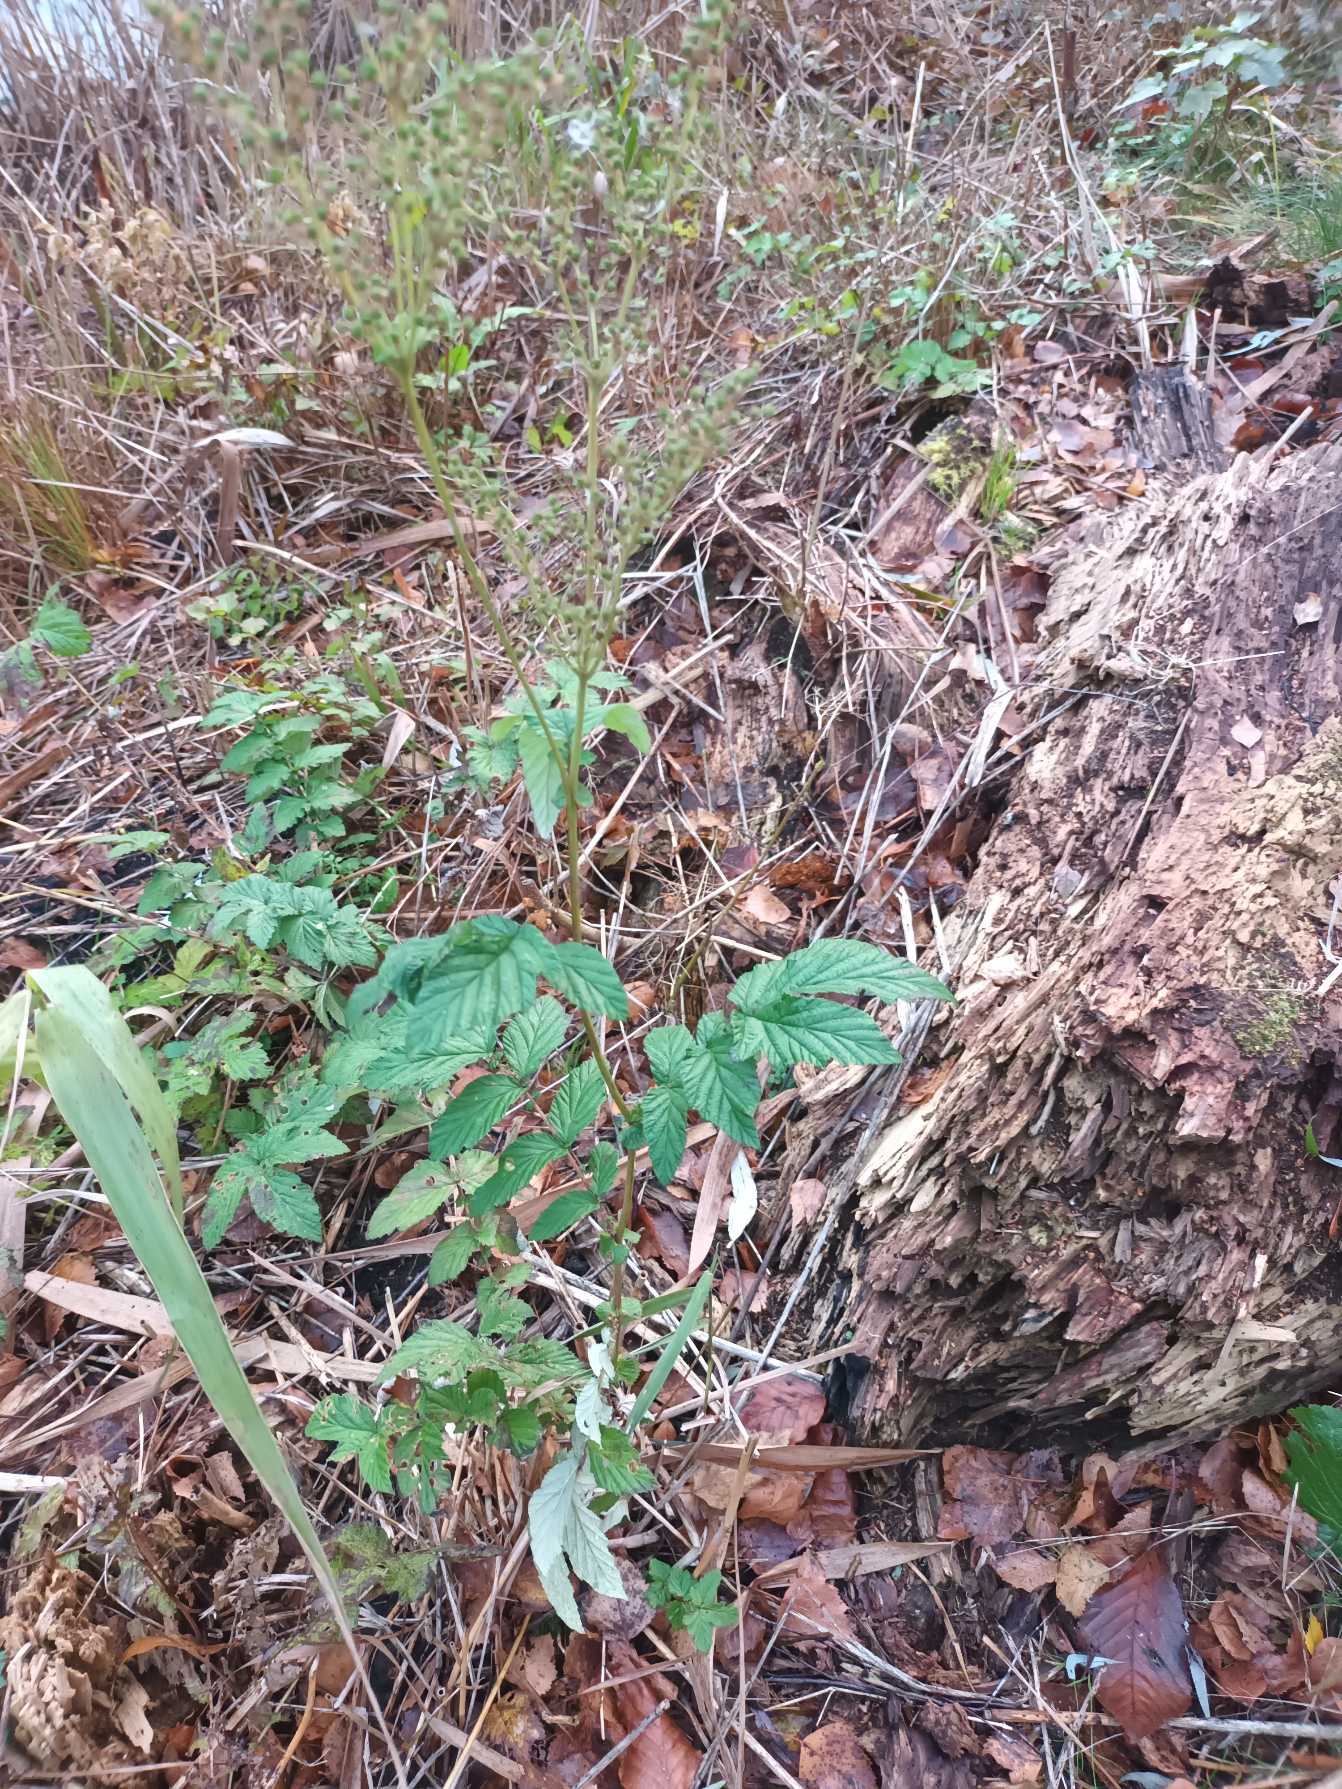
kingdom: Plantae
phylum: Tracheophyta
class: Magnoliopsida
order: Rosales
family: Rosaceae
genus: Filipendula
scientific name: Filipendula ulmaria
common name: Almindelig mjødurt
